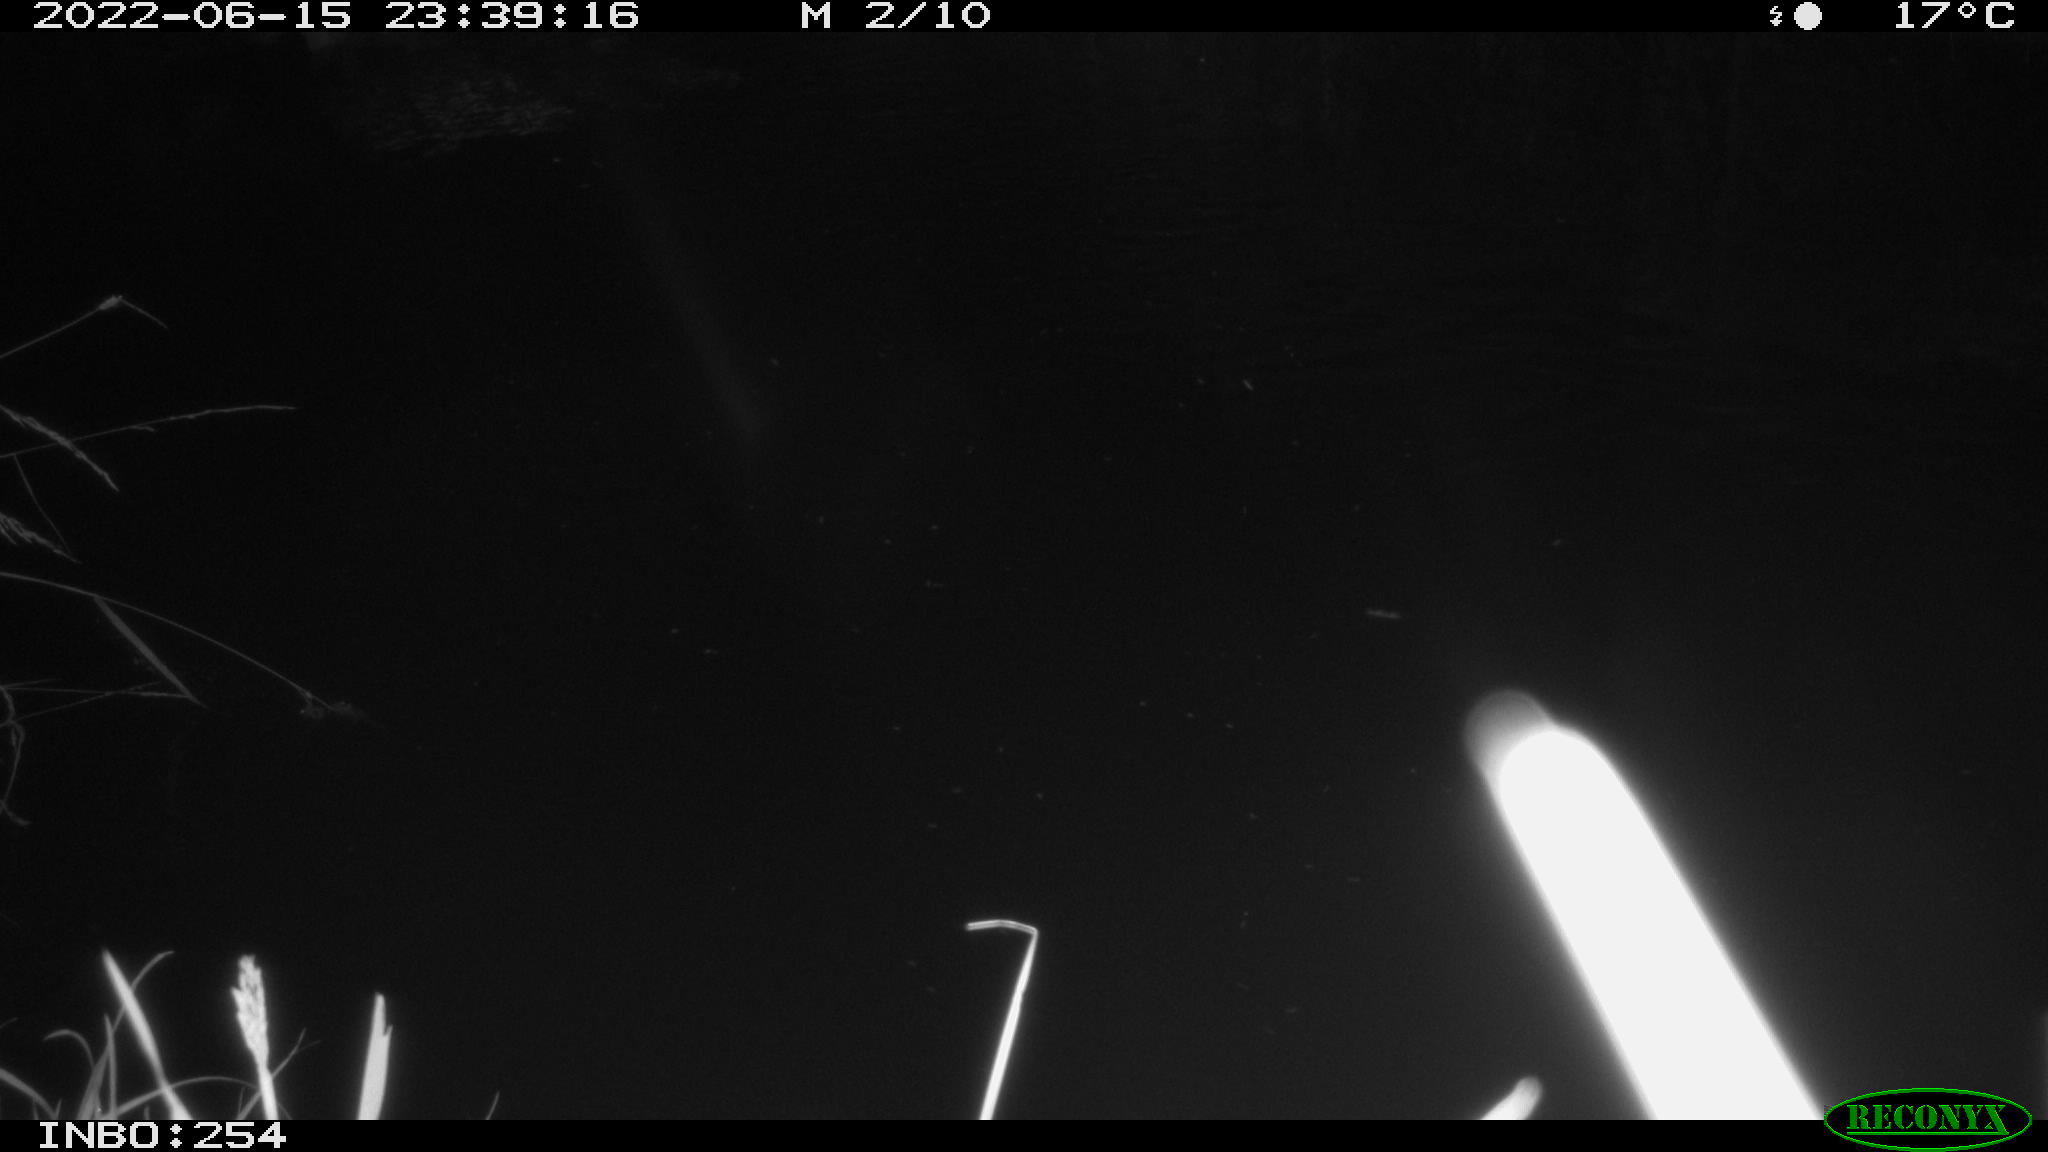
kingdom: Animalia
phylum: Chordata
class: Aves
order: Anseriformes
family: Anatidae
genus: Anas
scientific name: Anas platyrhynchos
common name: Mallard
